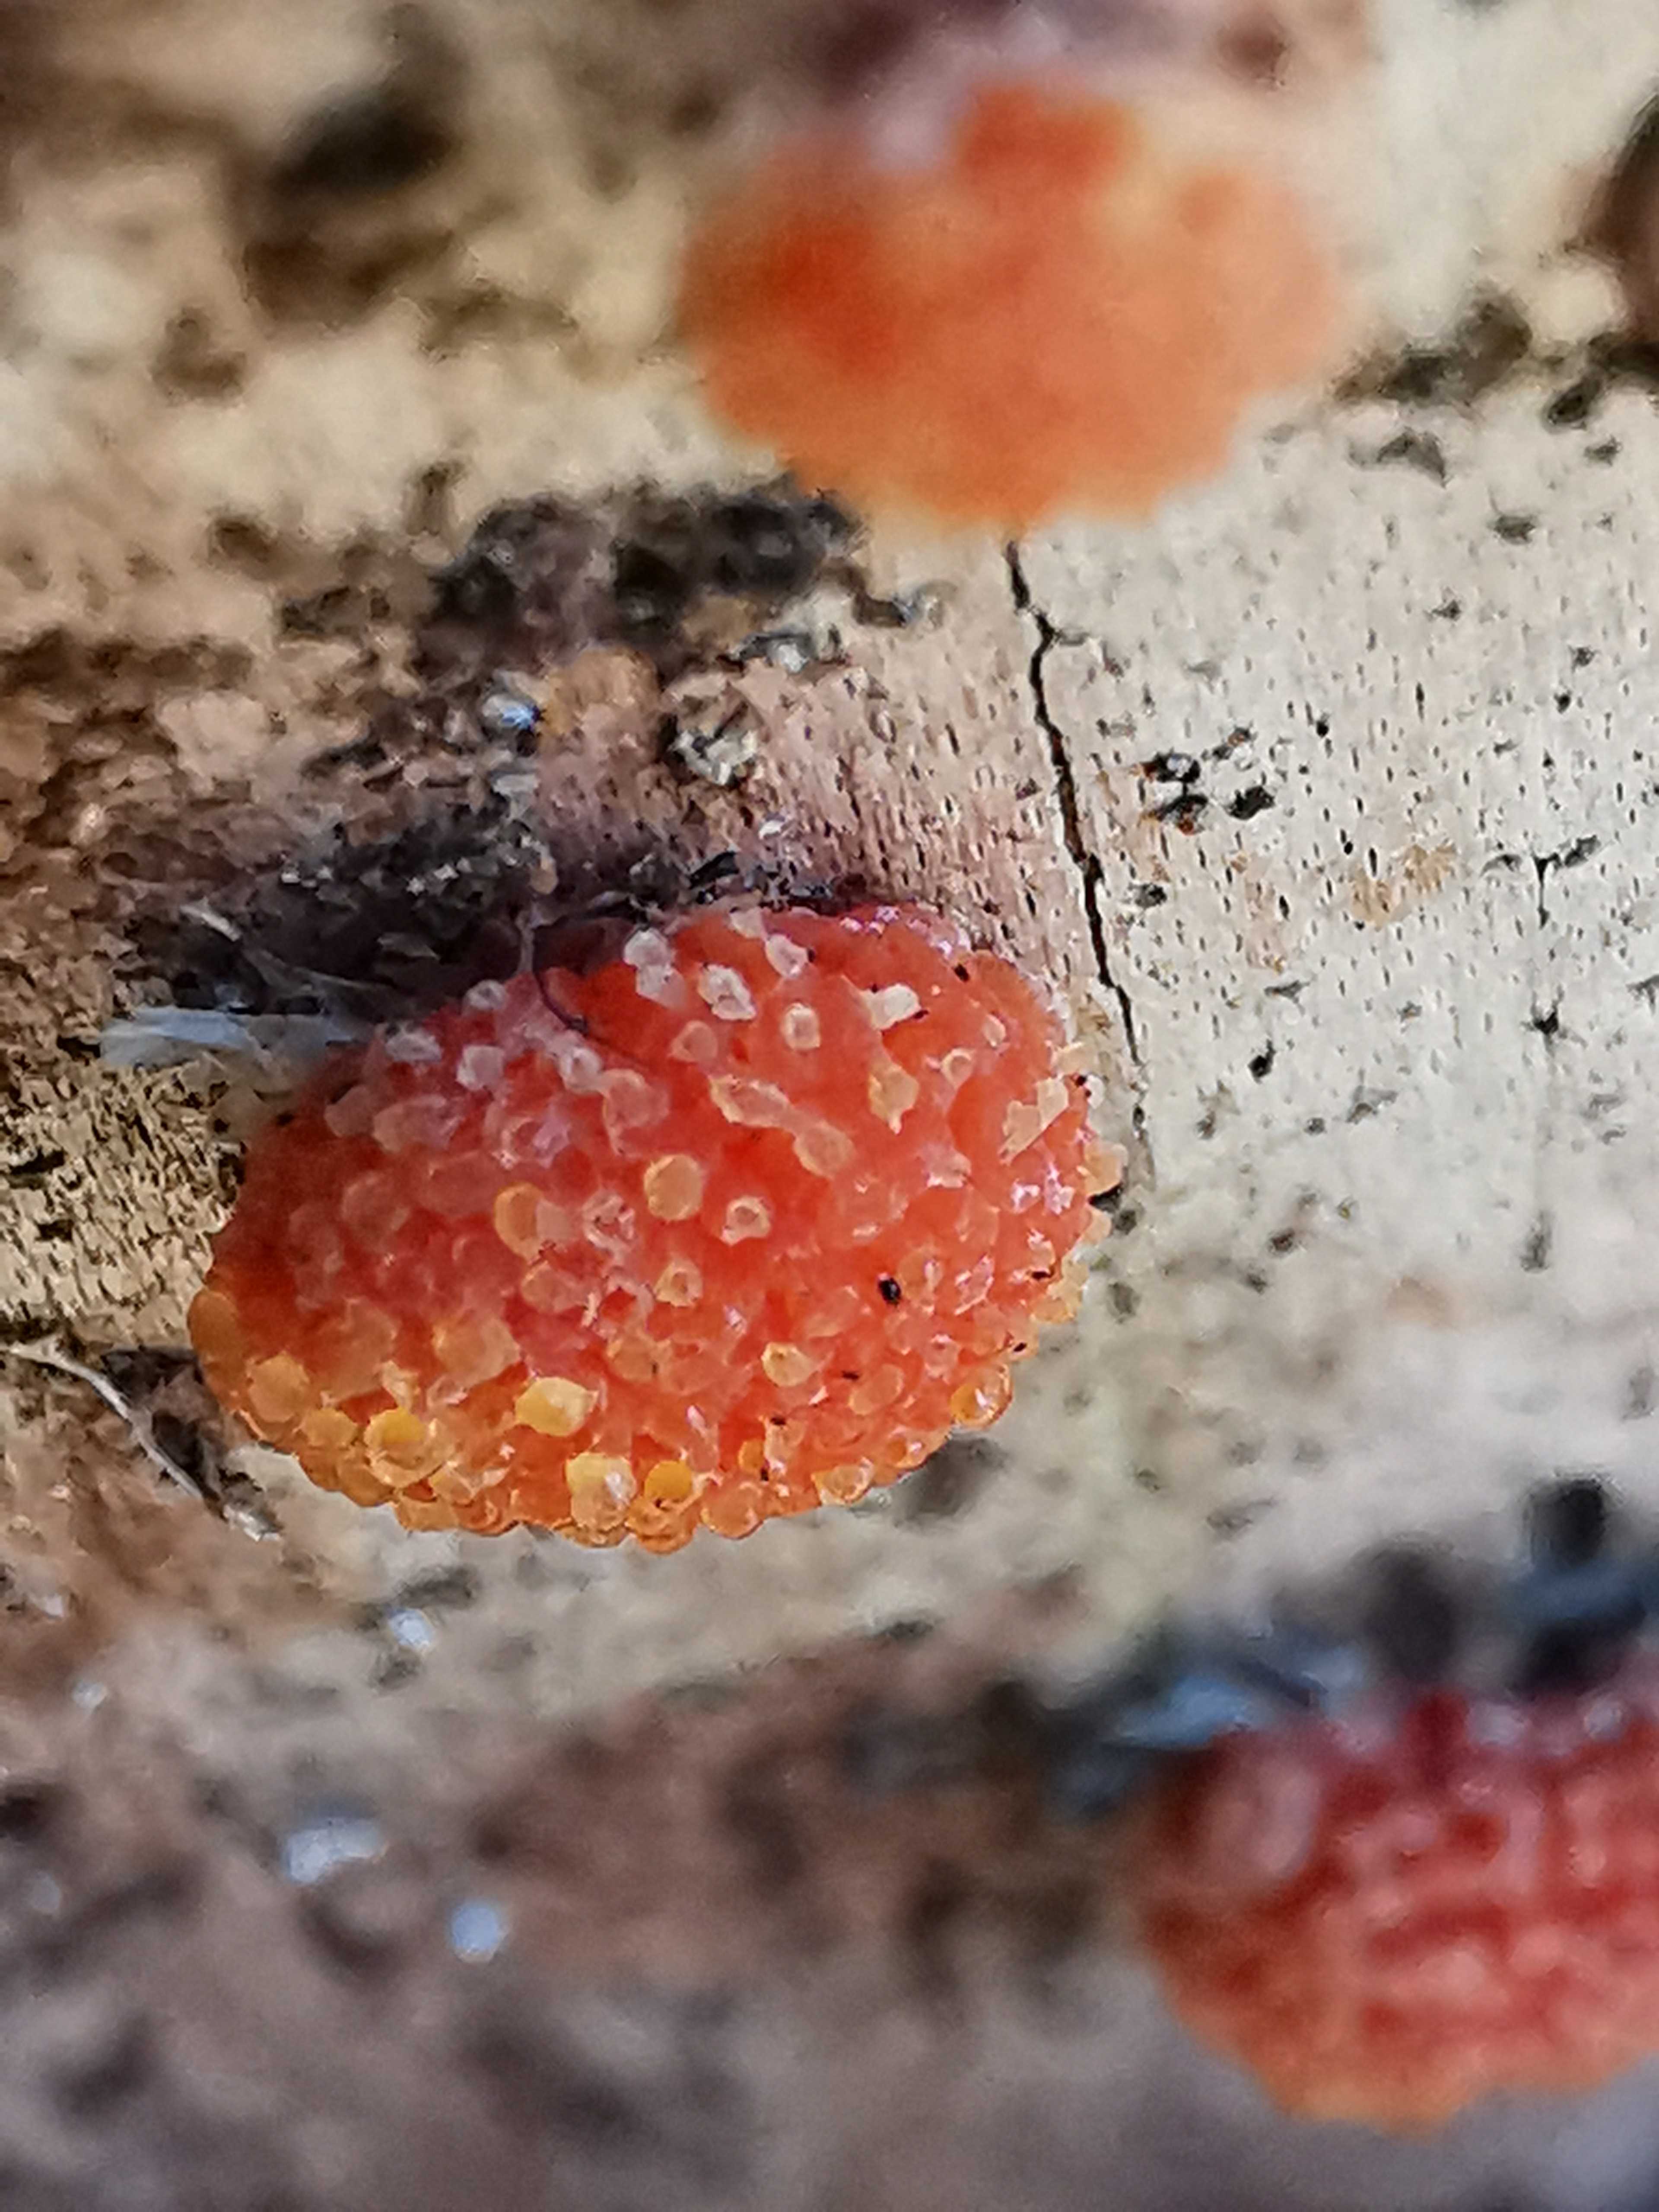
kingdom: Protozoa
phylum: Mycetozoa
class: Myxomycetes
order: Cribrariales
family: Tubiferaceae
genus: Tubifera
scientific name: Tubifera ferruginosa
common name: kanel-støvrør
